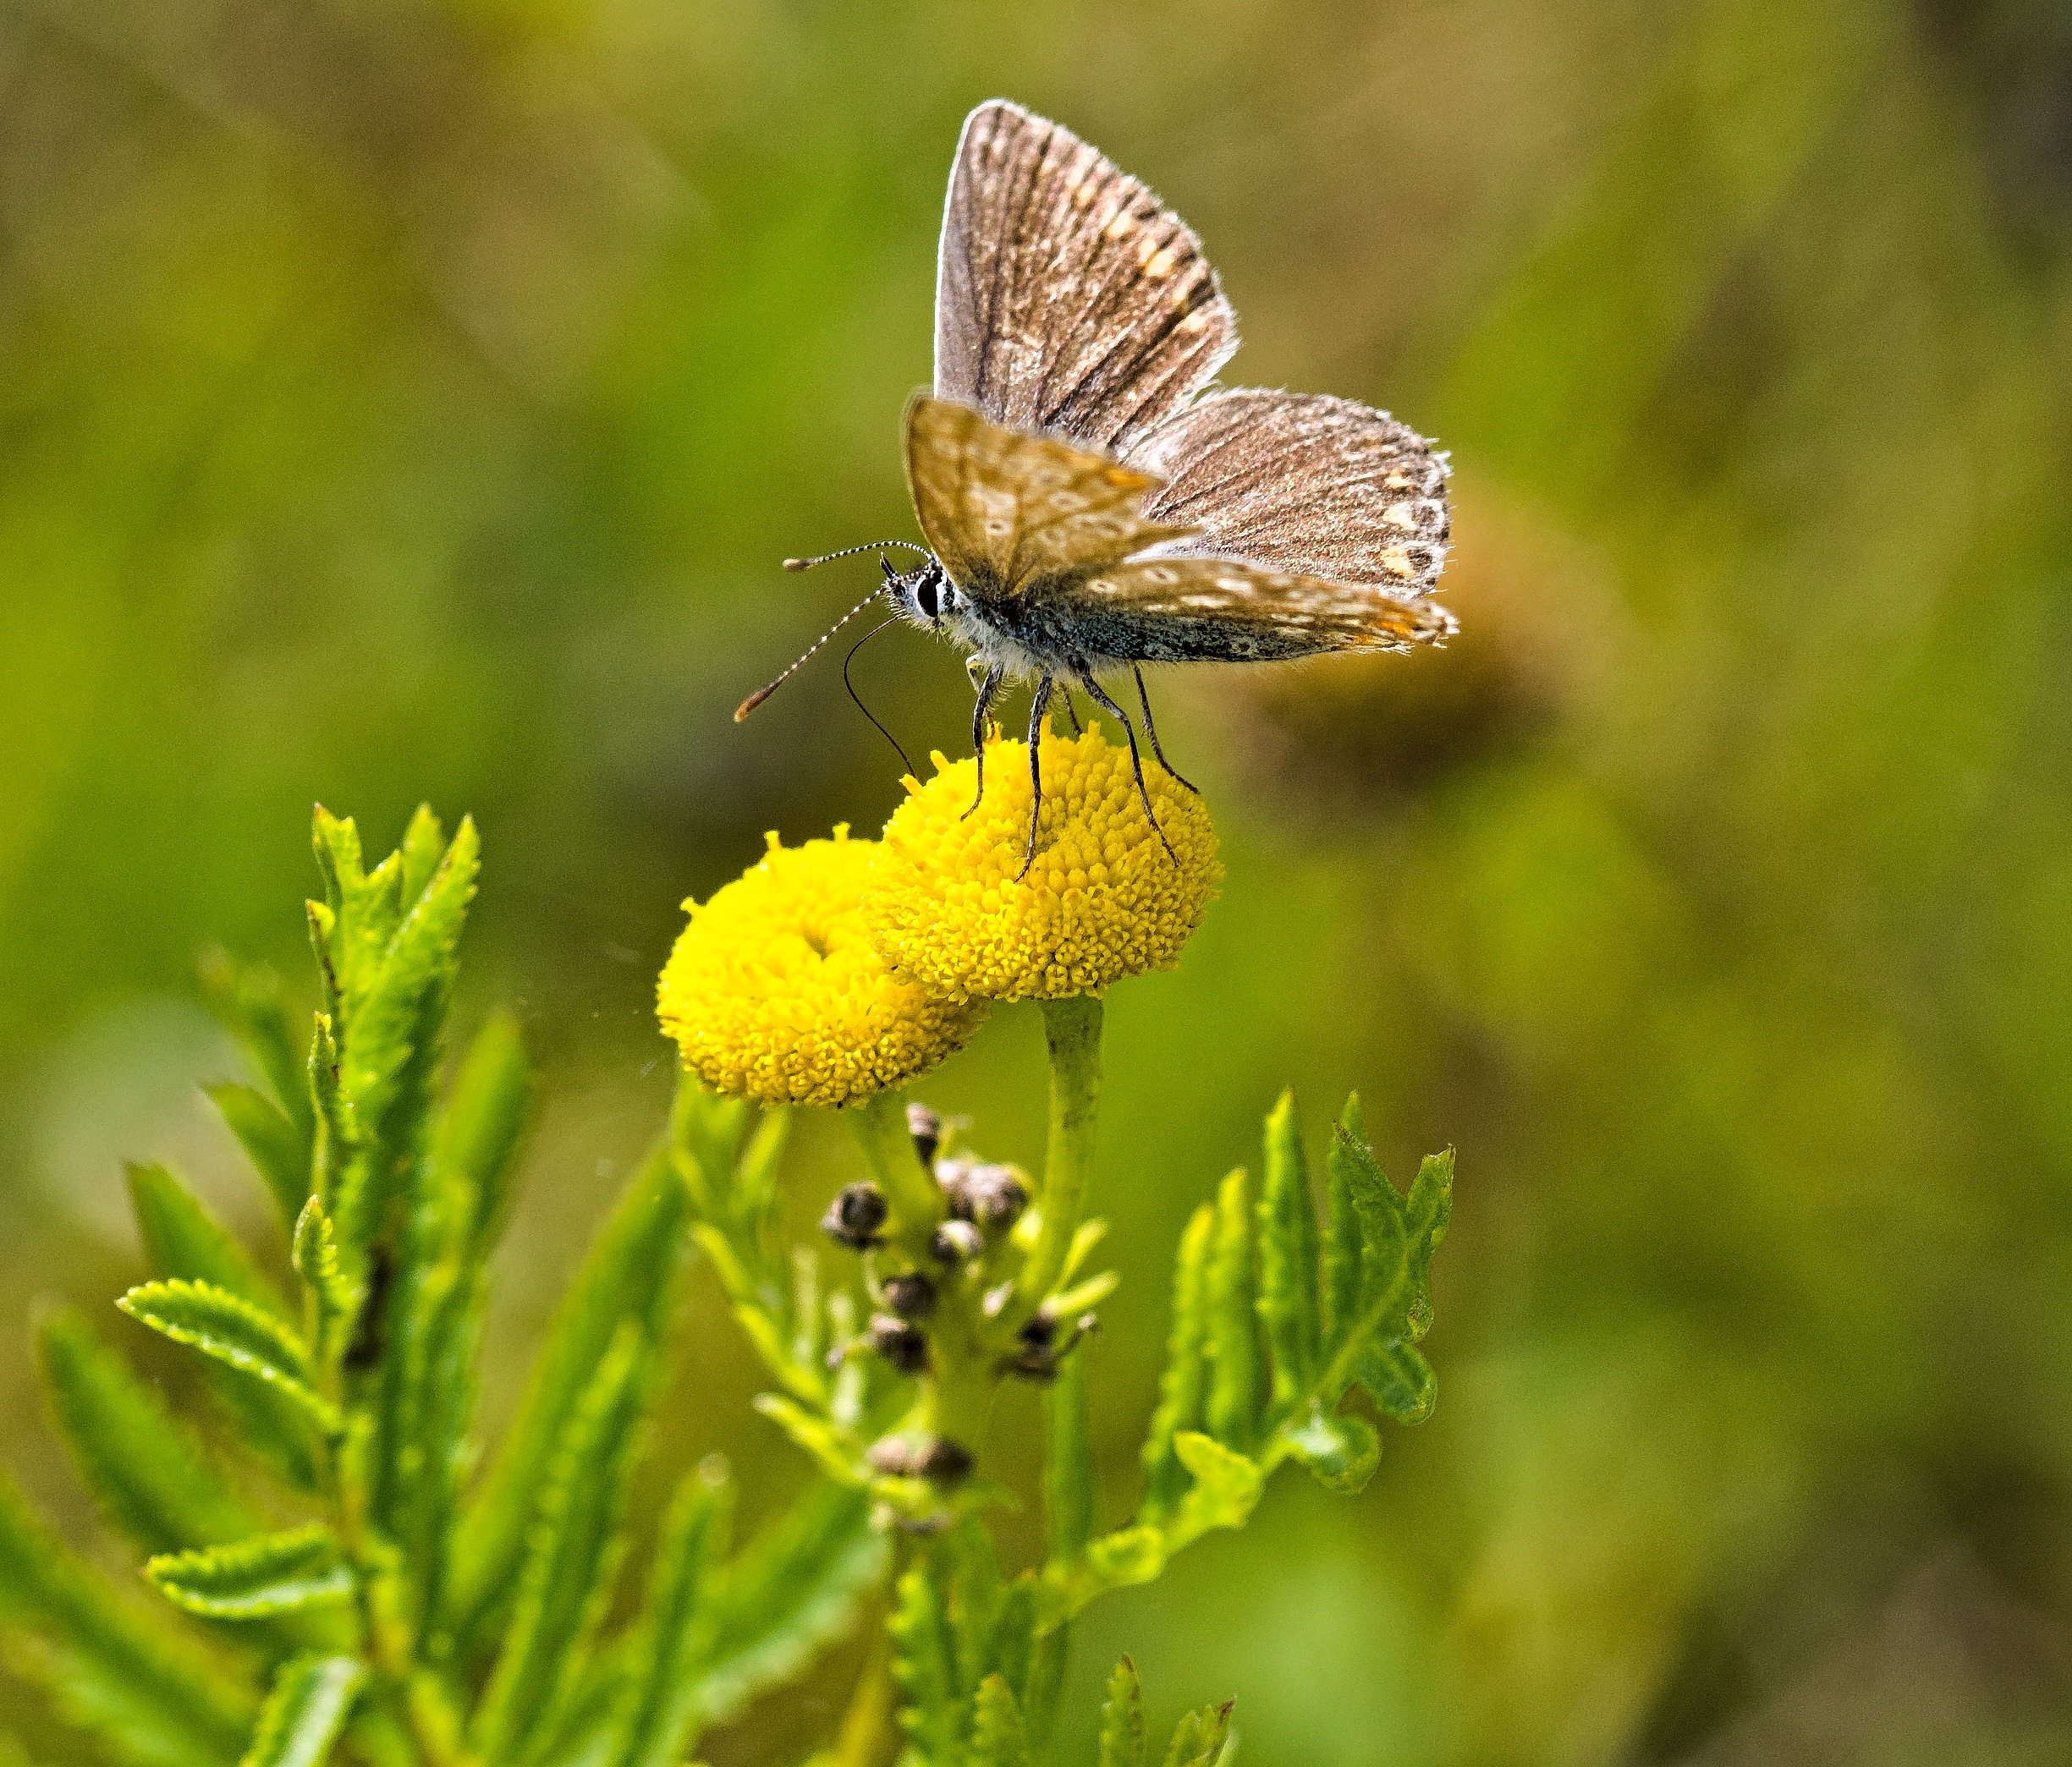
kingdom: Animalia
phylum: Arthropoda
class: Insecta
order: Lepidoptera
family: Lycaenidae
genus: Polyommatus
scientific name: Polyommatus icarus
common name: Almindelig blåfugl
